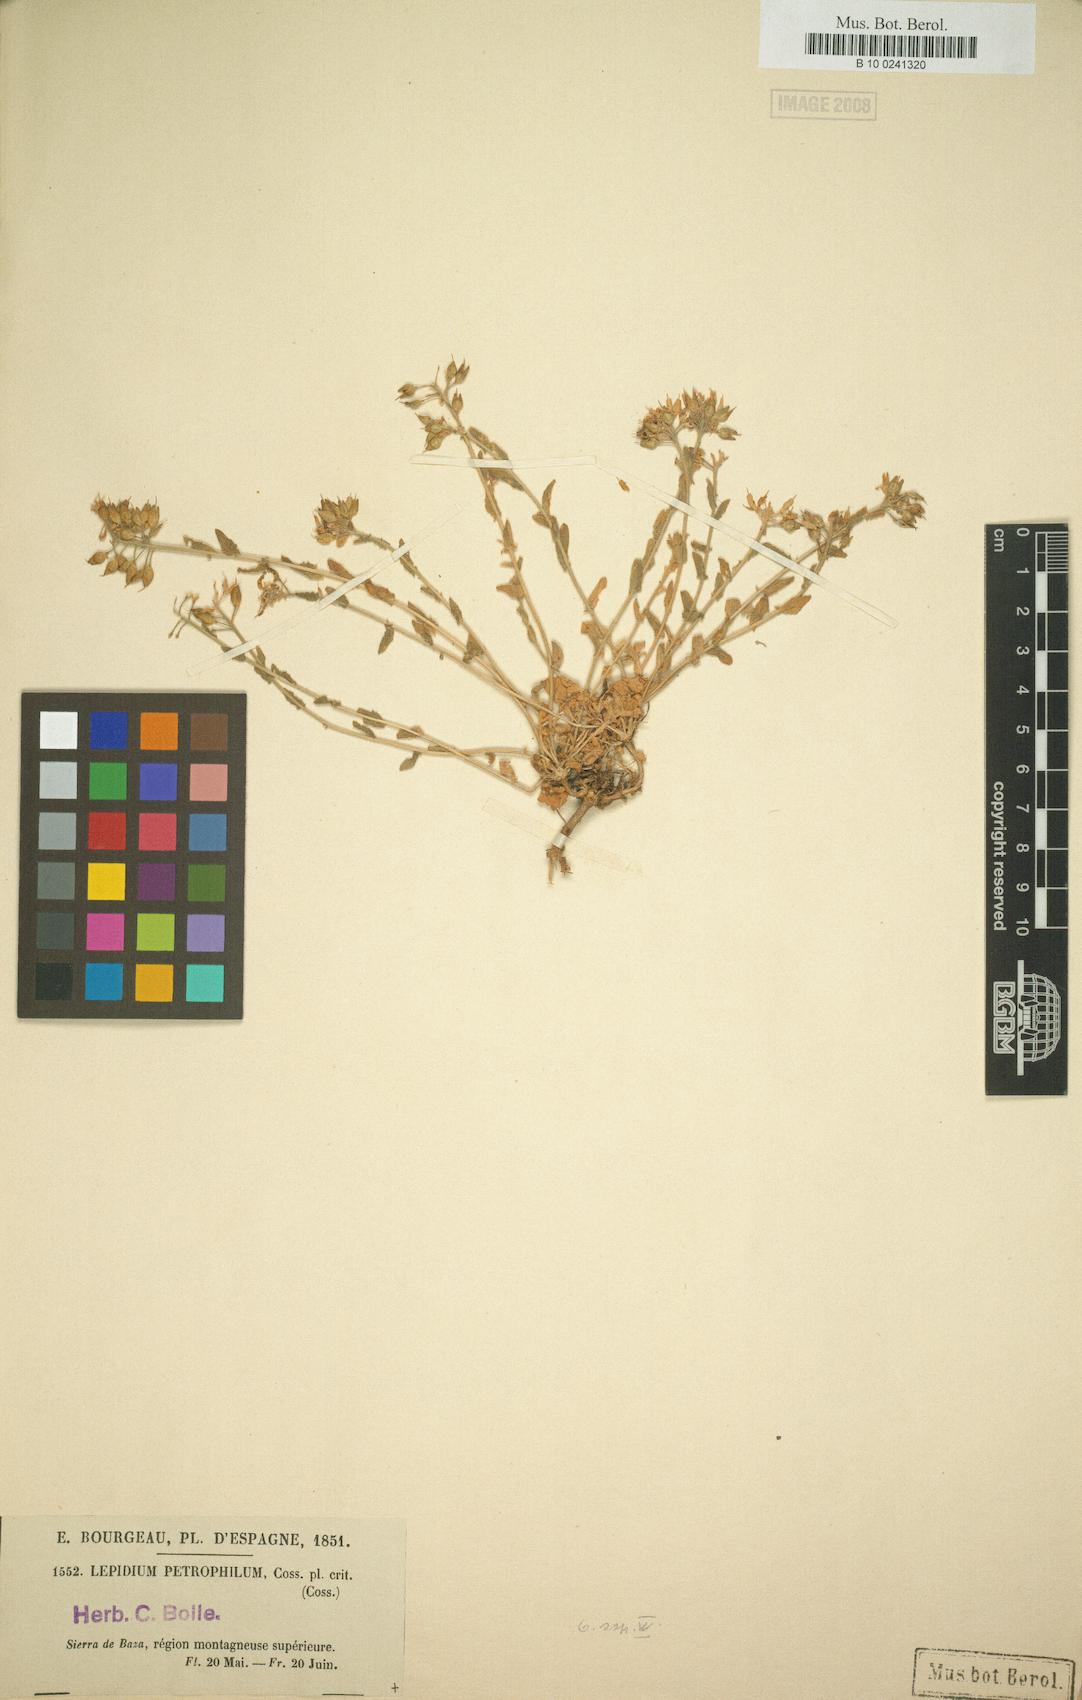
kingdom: Plantae
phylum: Tracheophyta
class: Magnoliopsida
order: Brassicales
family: Brassicaceae
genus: Lepidium
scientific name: Lepidium hirtum
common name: Mediterranean pepperweed
